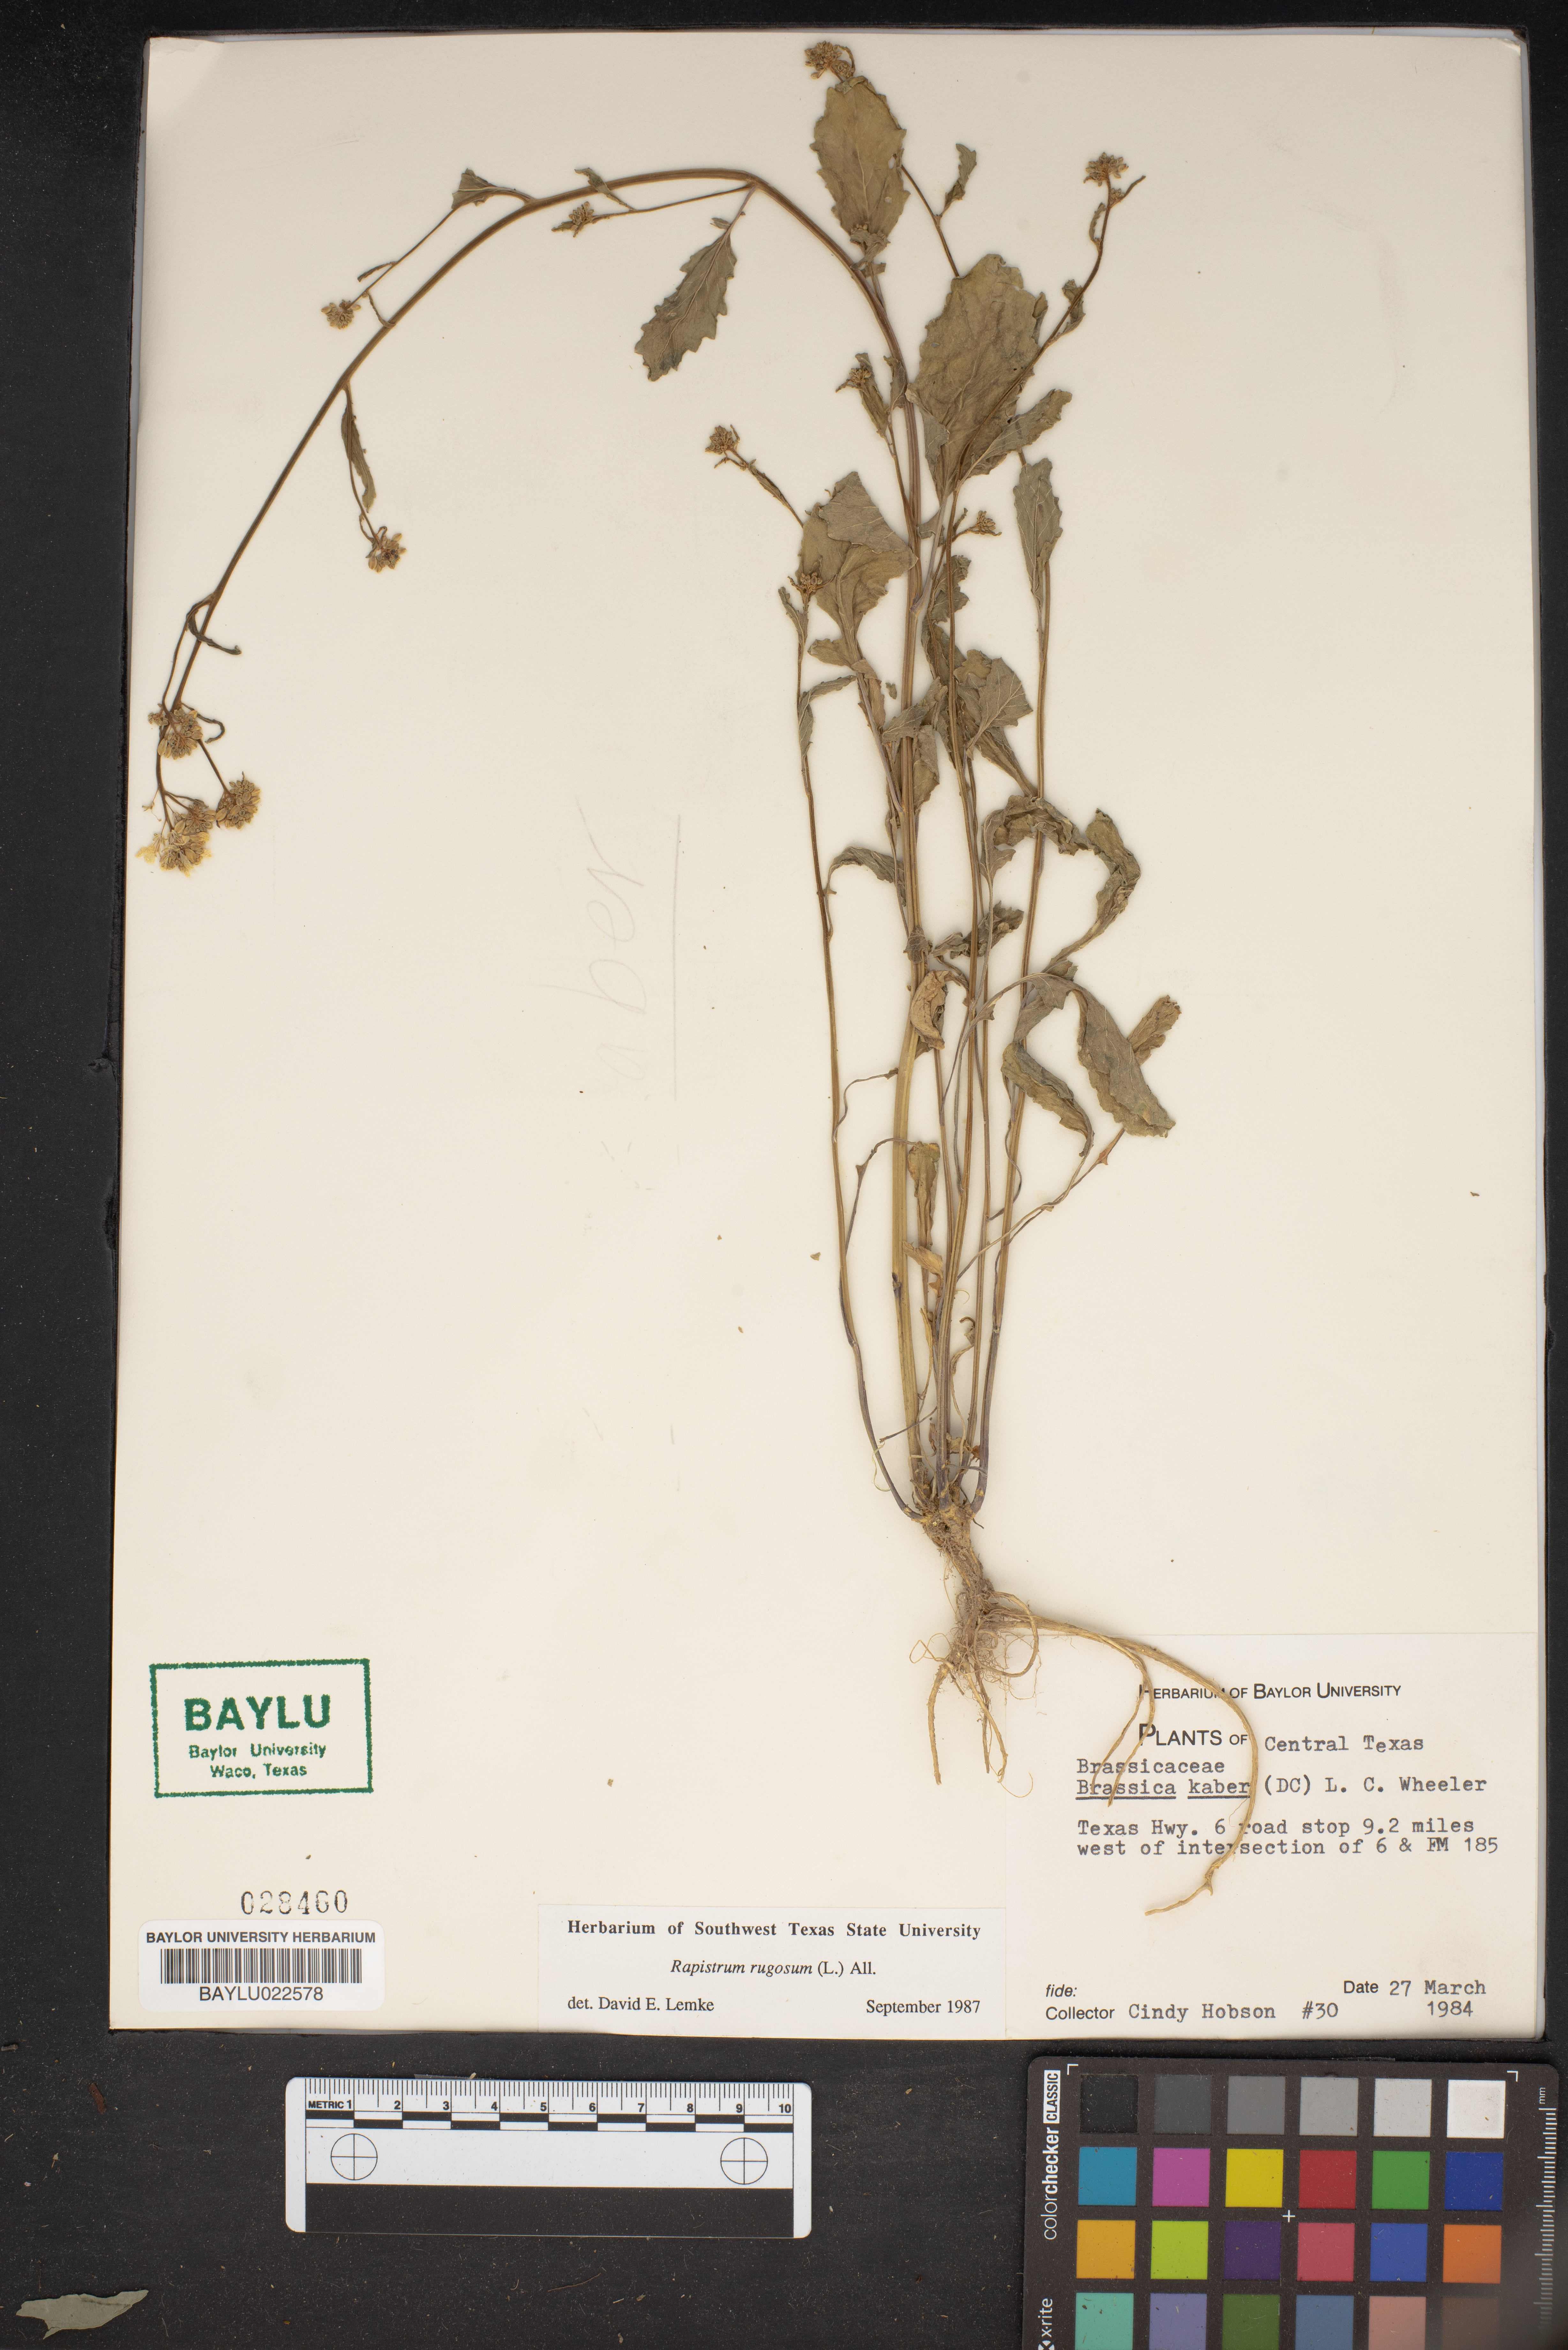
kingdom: Plantae
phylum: Tracheophyta
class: Magnoliopsida
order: Brassicales
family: Brassicaceae
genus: Rapistrum
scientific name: Rapistrum rugosum
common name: Annual bastardcabbage
